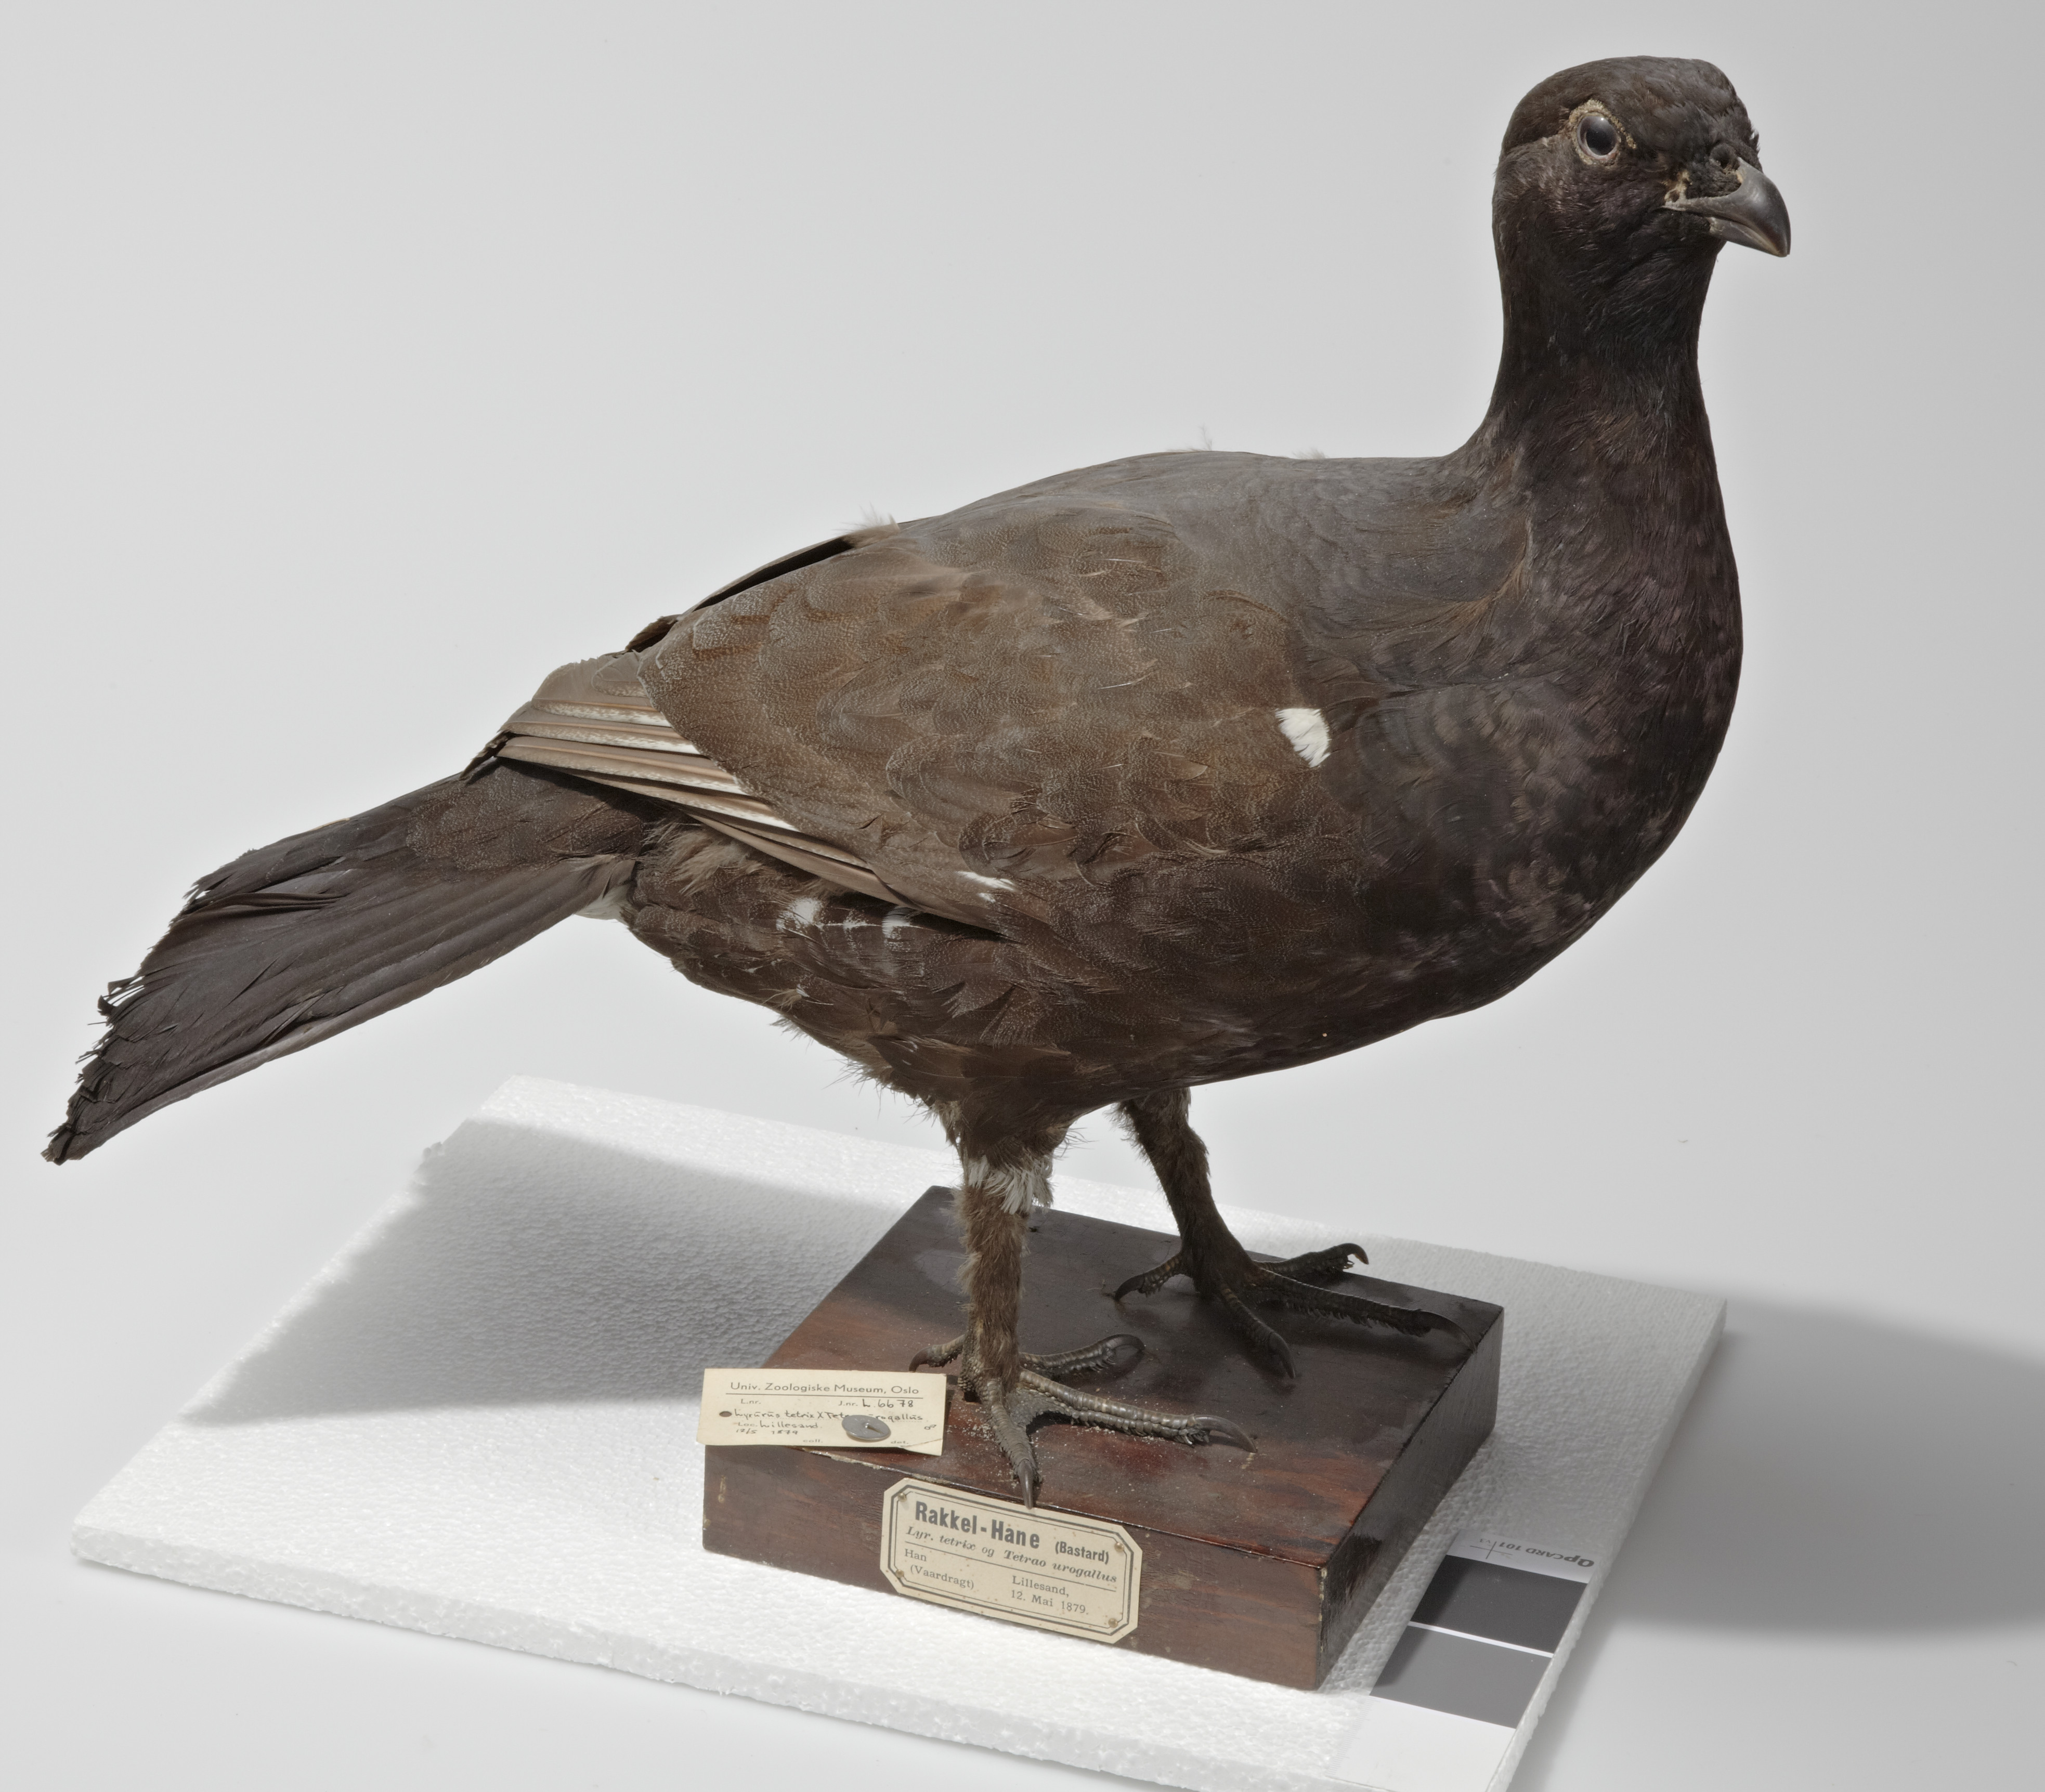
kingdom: Animalia
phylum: Chordata
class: Aves
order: Galliformes
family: Phasianidae
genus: Lyrurus
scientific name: Lyrurus
